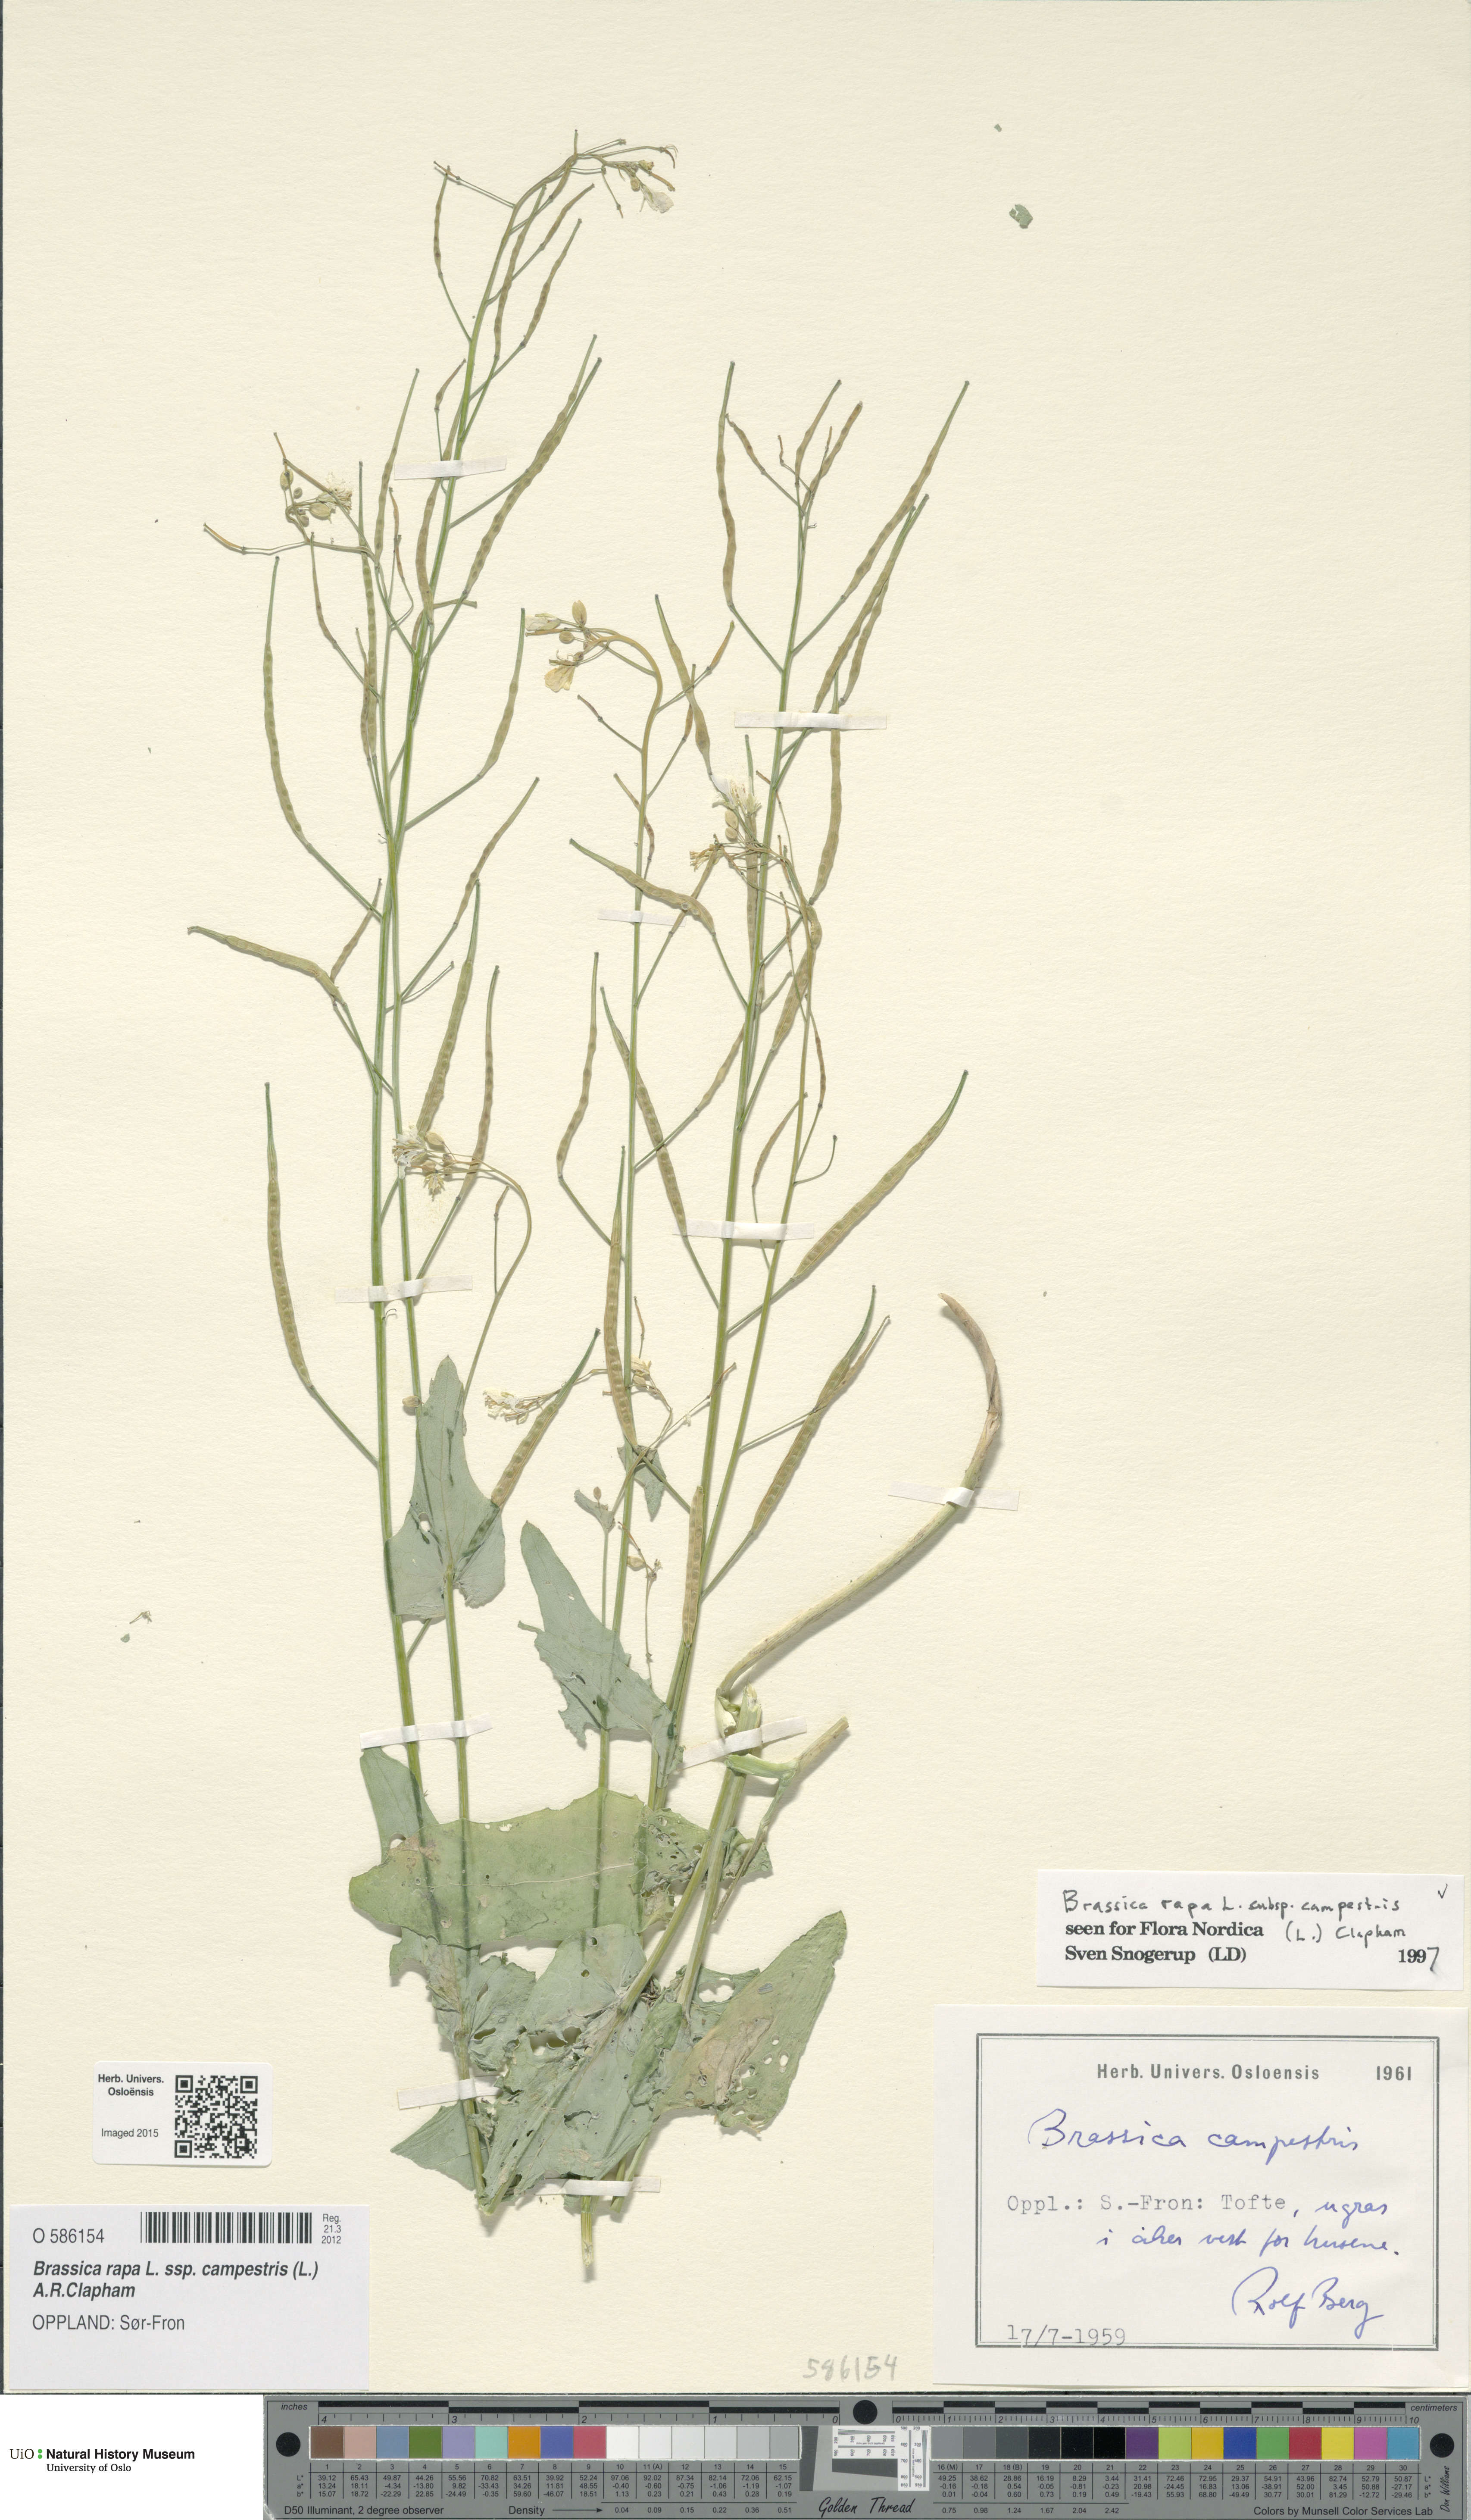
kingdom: Plantae
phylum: Tracheophyta
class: Magnoliopsida
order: Brassicales
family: Brassicaceae
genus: Brassica
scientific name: Brassica rapa
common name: Field mustard
